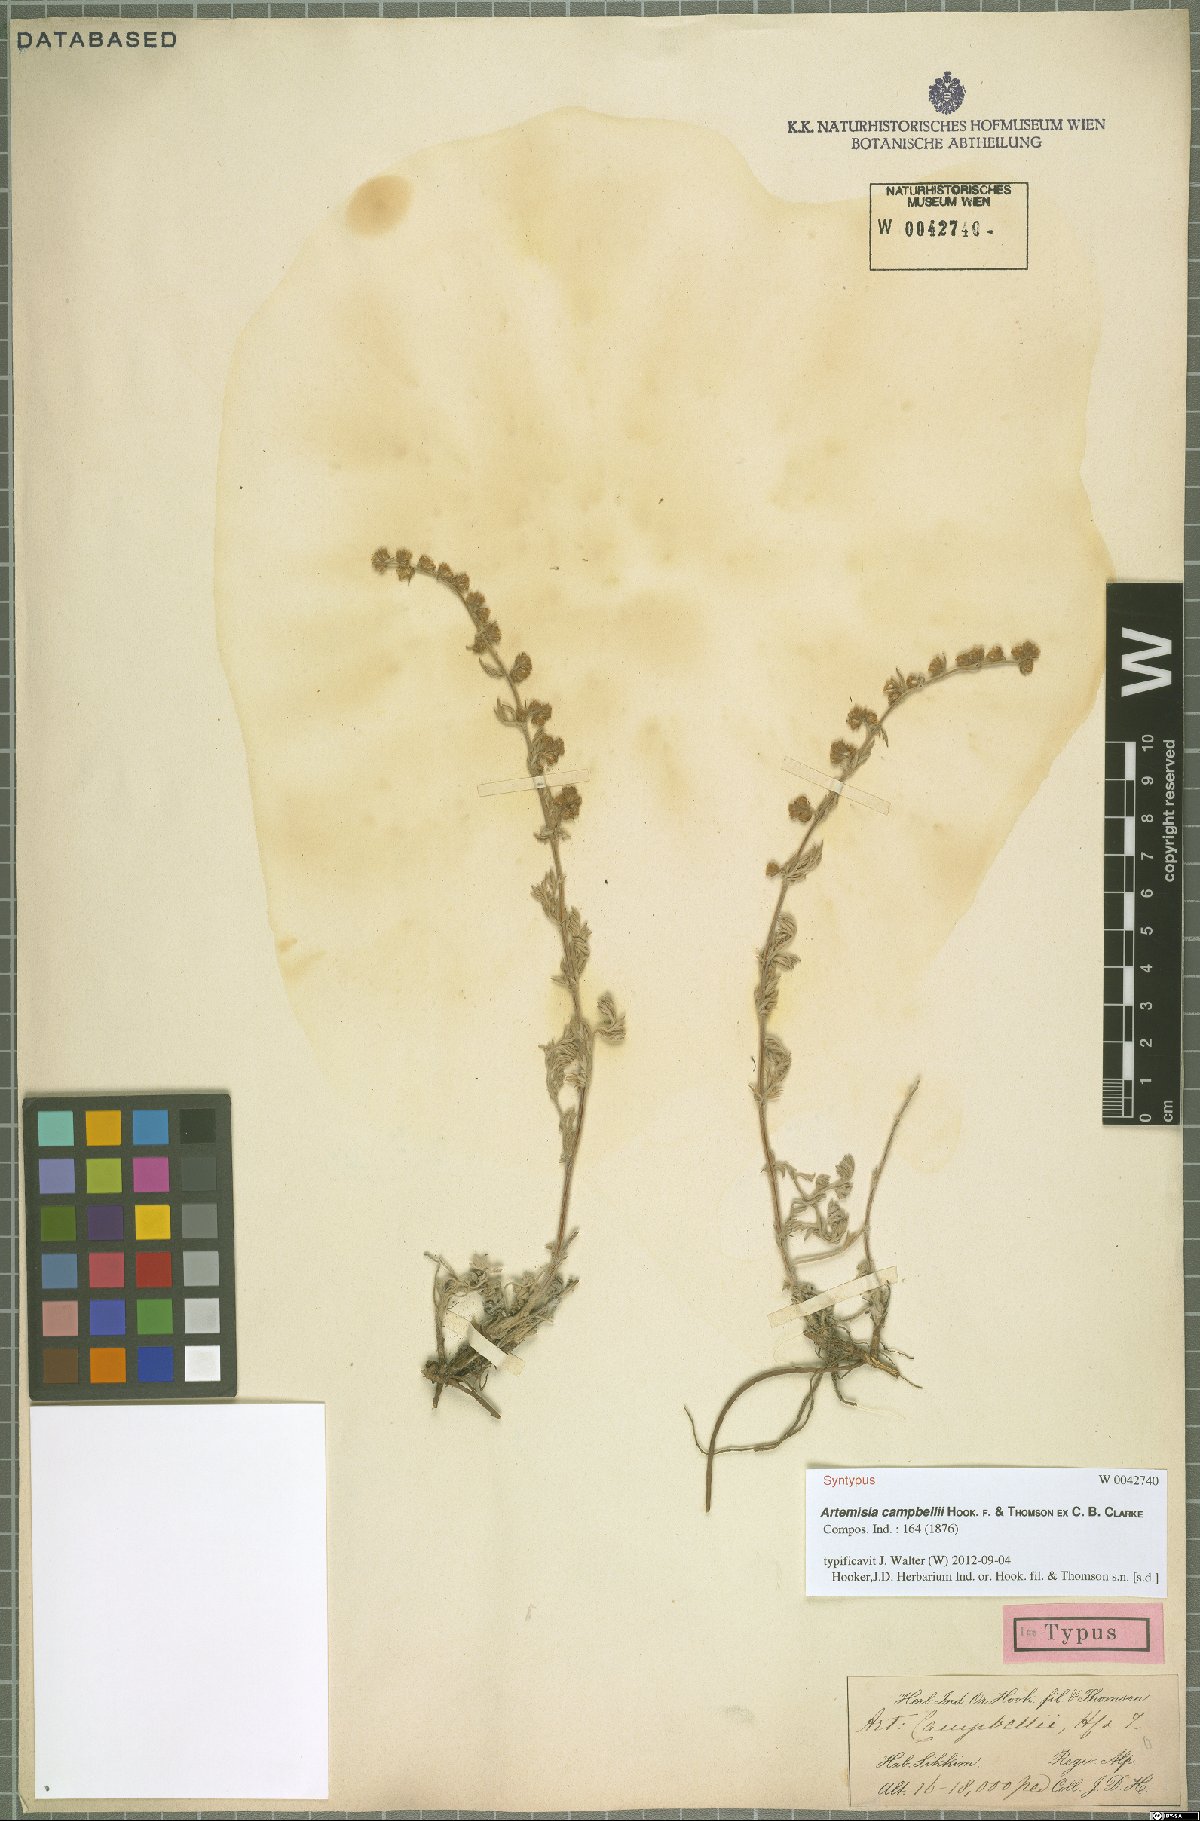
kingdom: Plantae
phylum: Tracheophyta
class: Magnoliopsida
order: Asterales
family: Asteraceae
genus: Artemisia
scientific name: Artemisia campbellii
